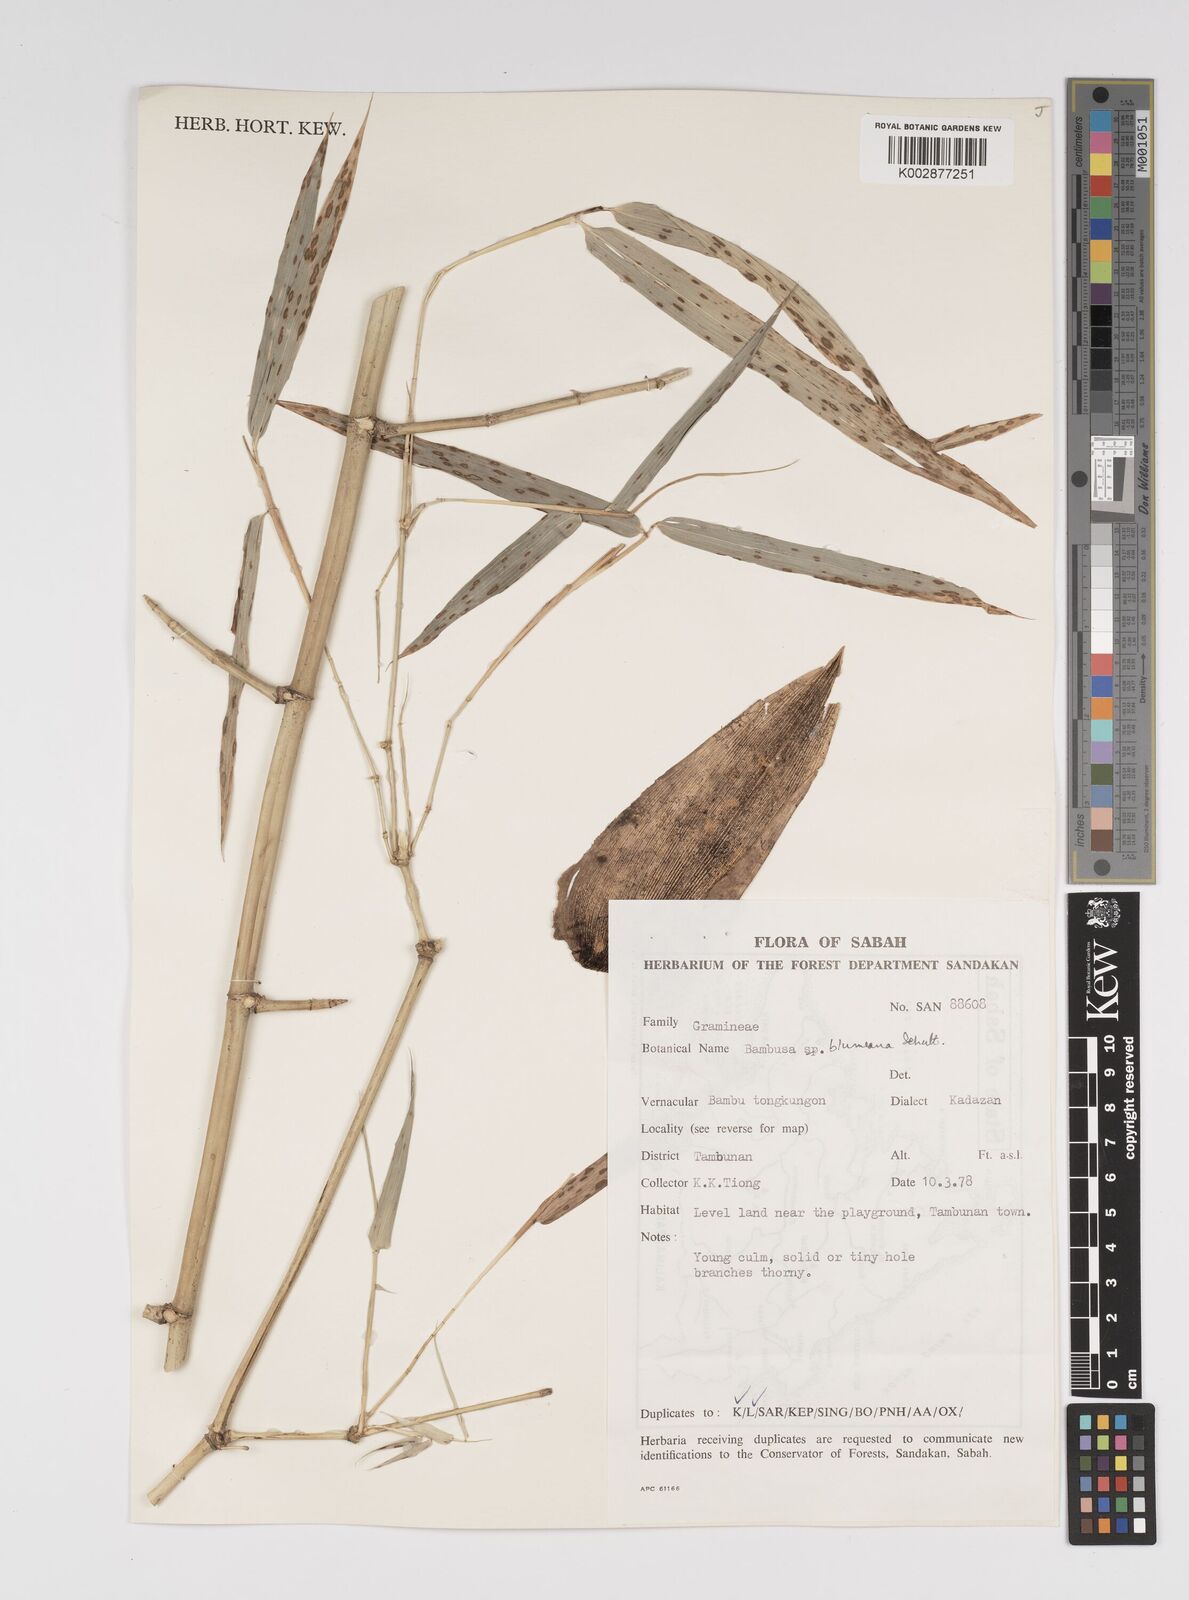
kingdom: Plantae
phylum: Tracheophyta
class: Liliopsida
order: Poales
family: Poaceae
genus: Bambusa
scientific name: Bambusa spinosa
